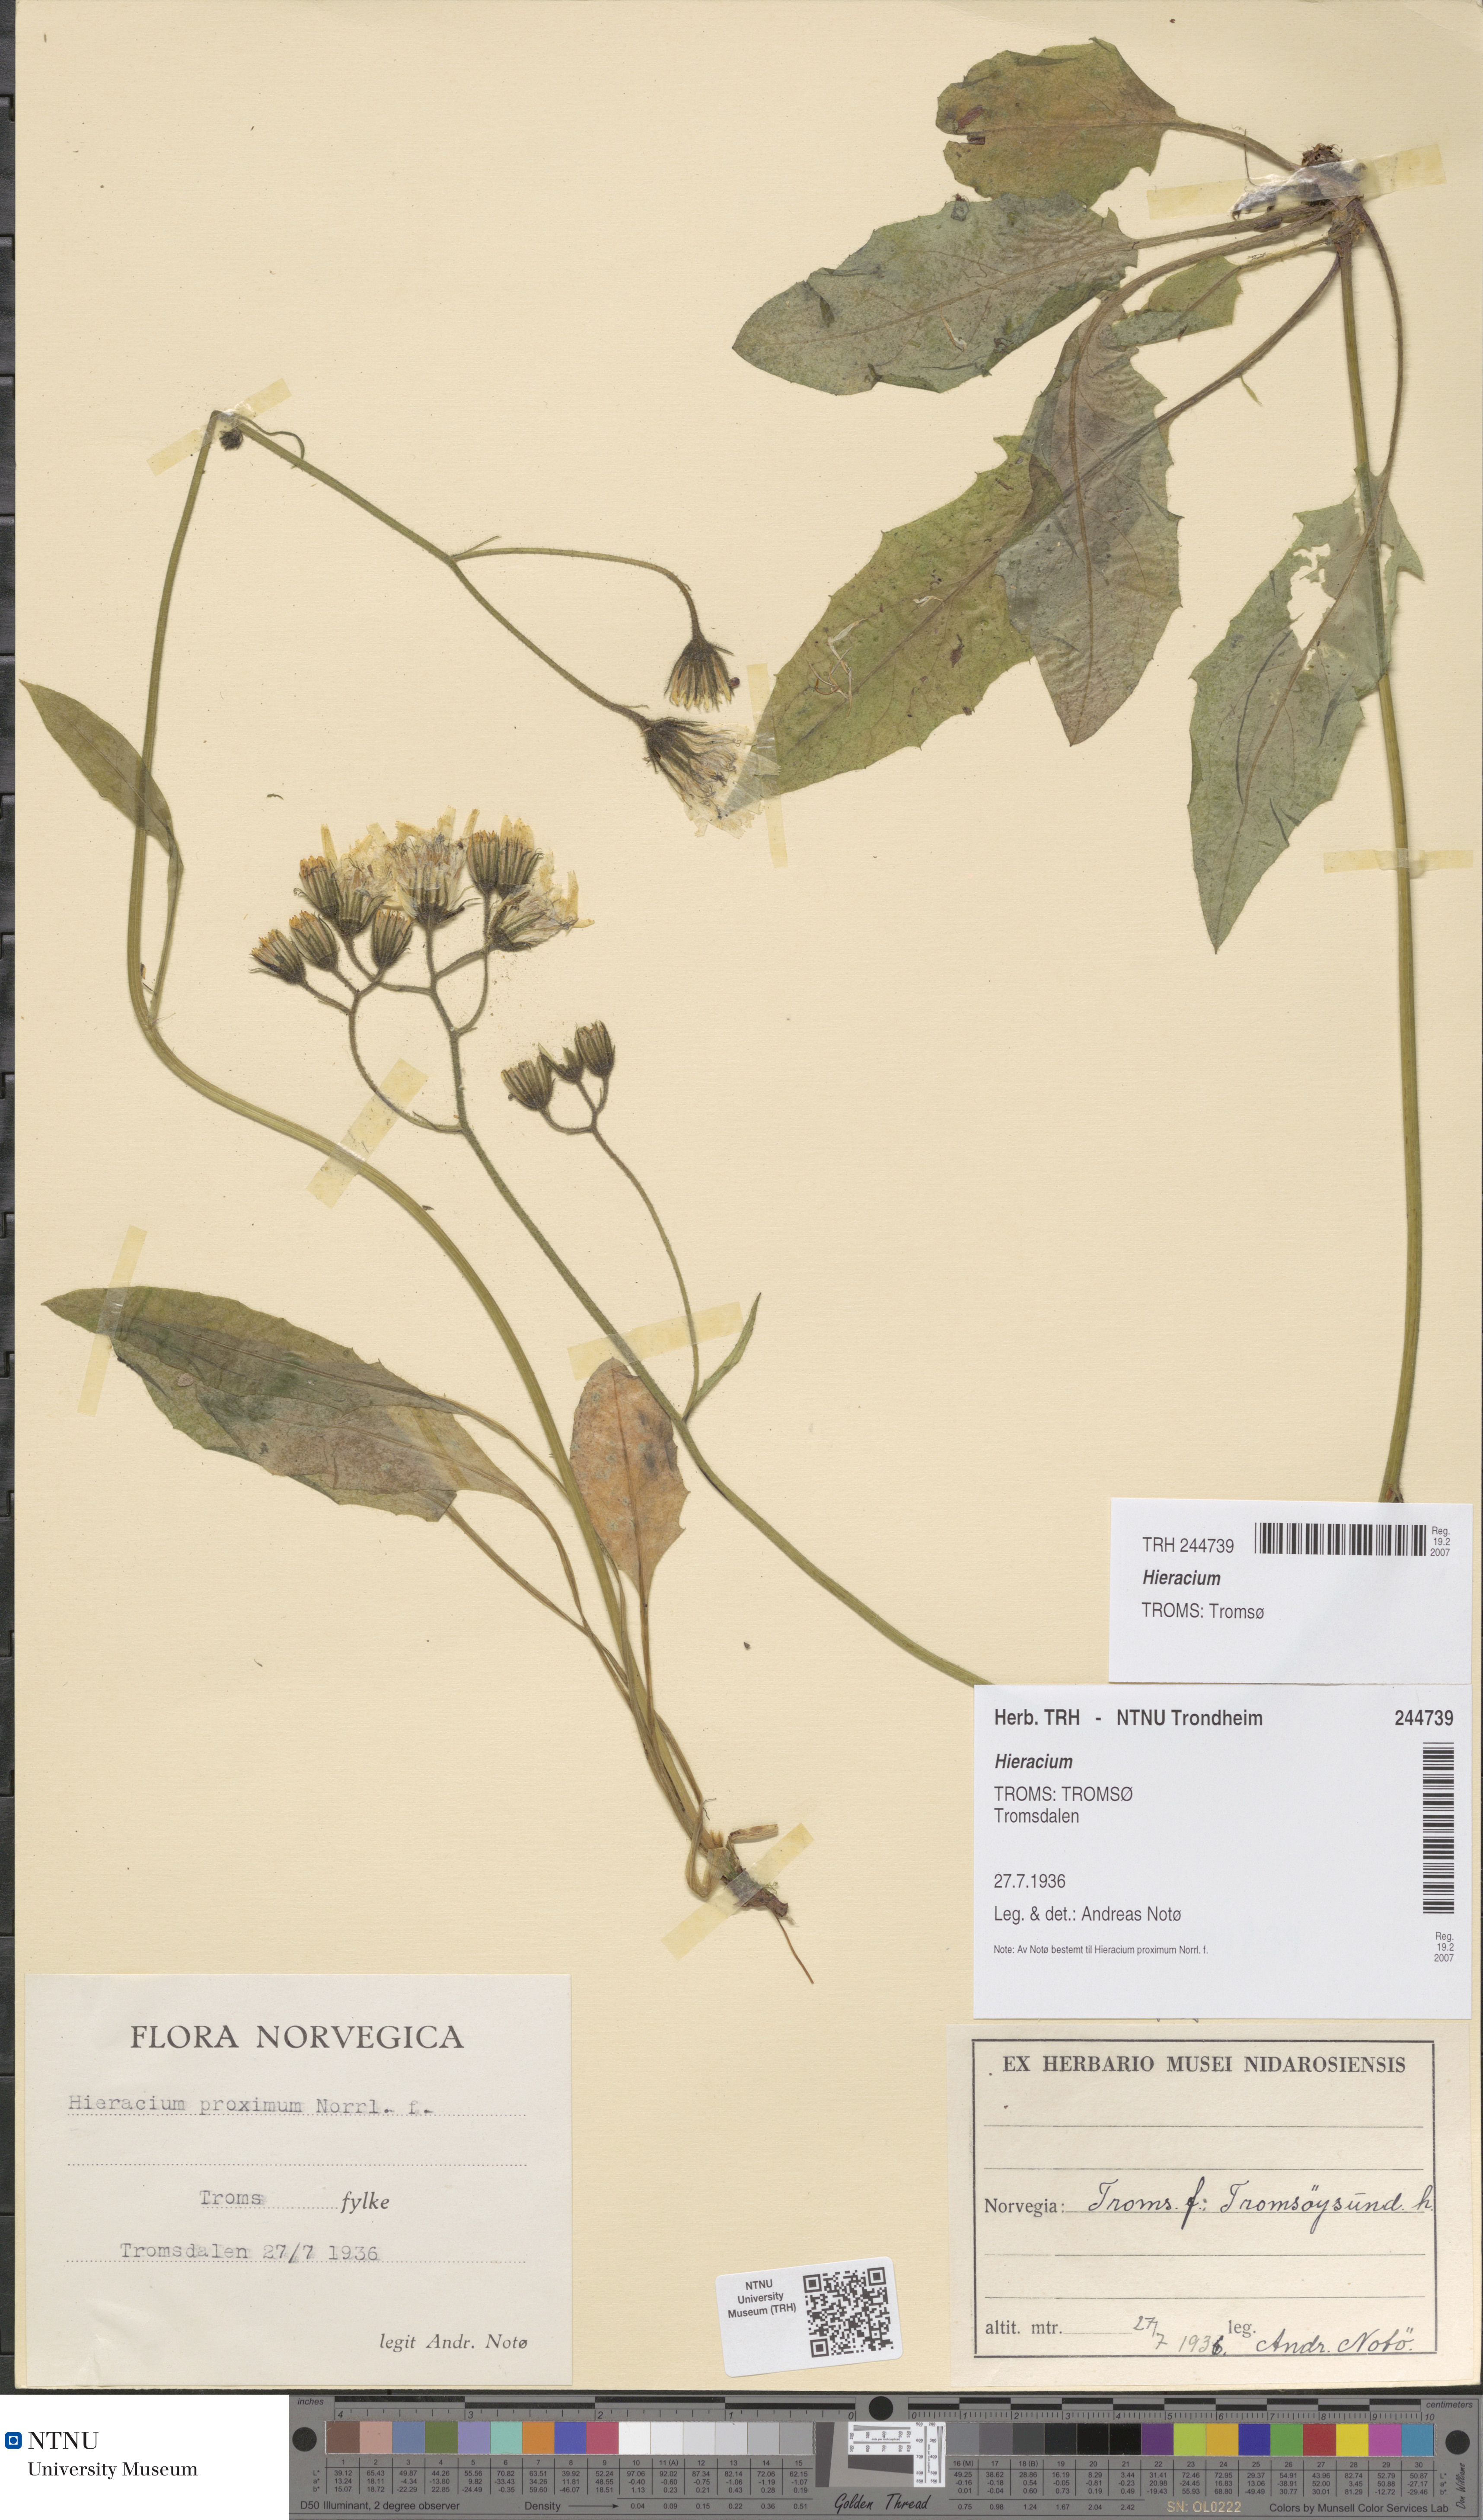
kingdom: Plantae
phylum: Tracheophyta
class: Magnoliopsida
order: Asterales
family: Asteraceae
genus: Hieracium
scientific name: Hieracium
